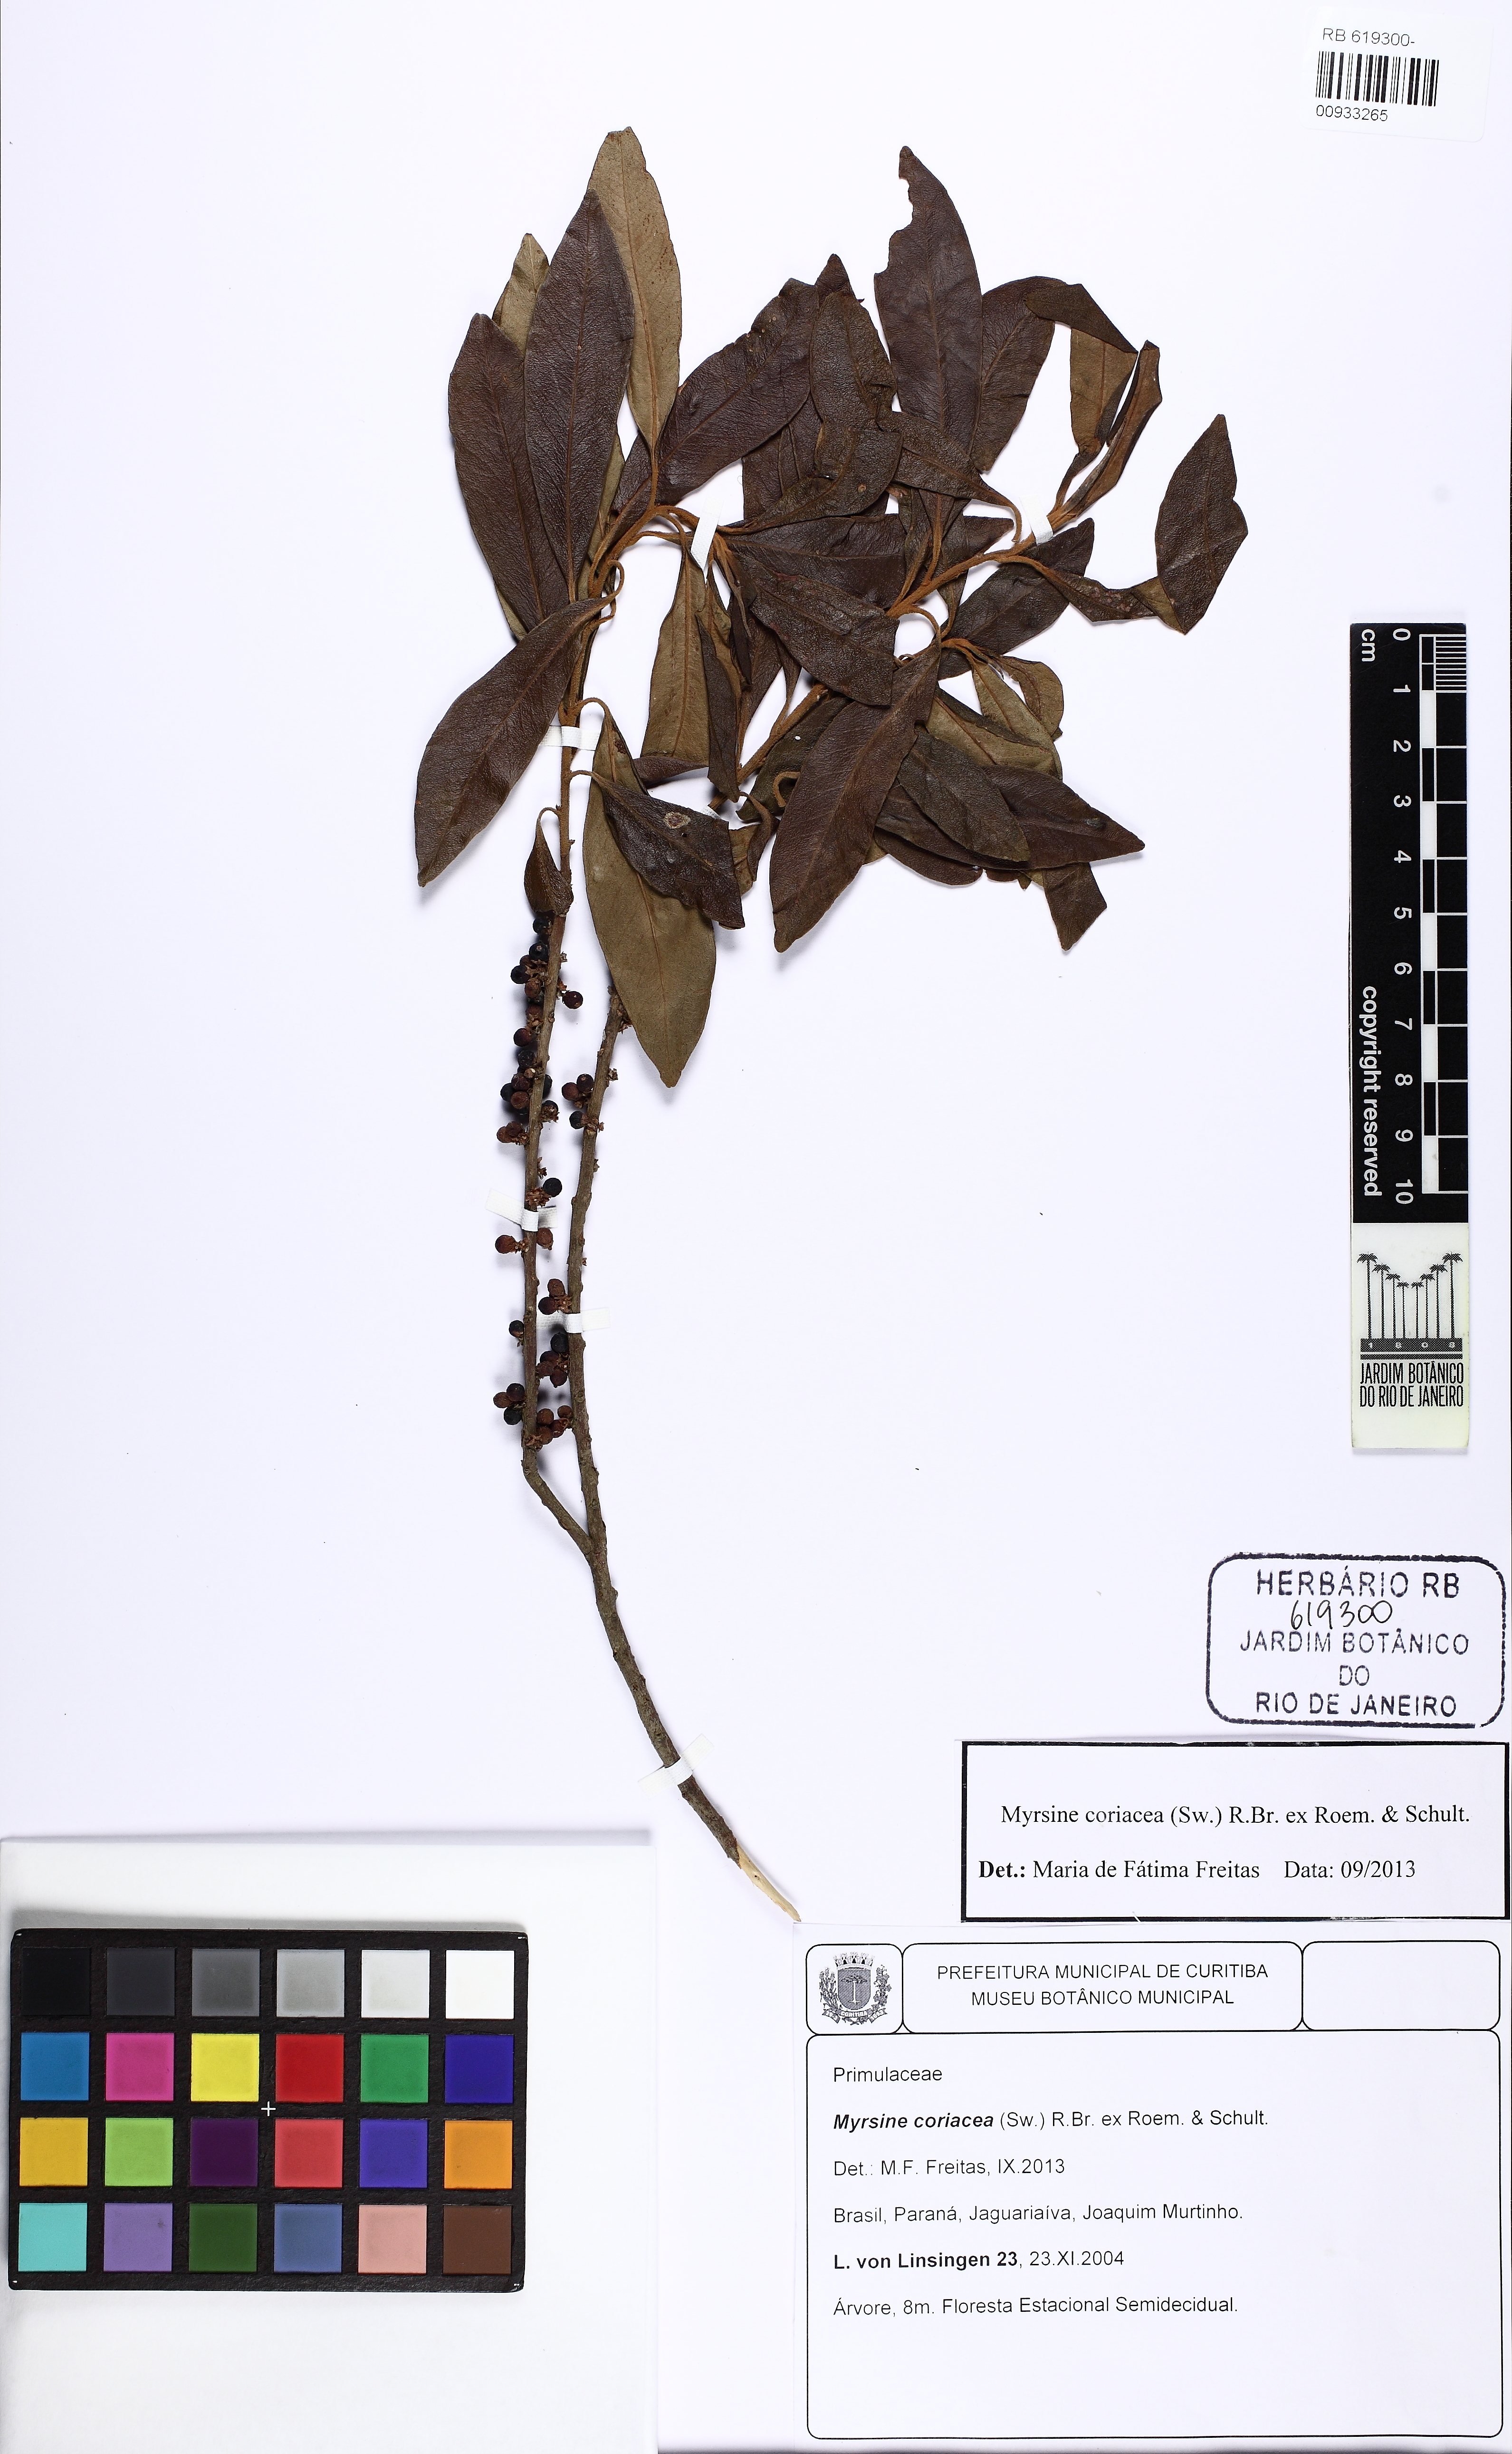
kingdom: Plantae
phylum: Tracheophyta
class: Magnoliopsida
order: Ericales
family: Primulaceae
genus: Myrsine
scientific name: Myrsine coriacea
